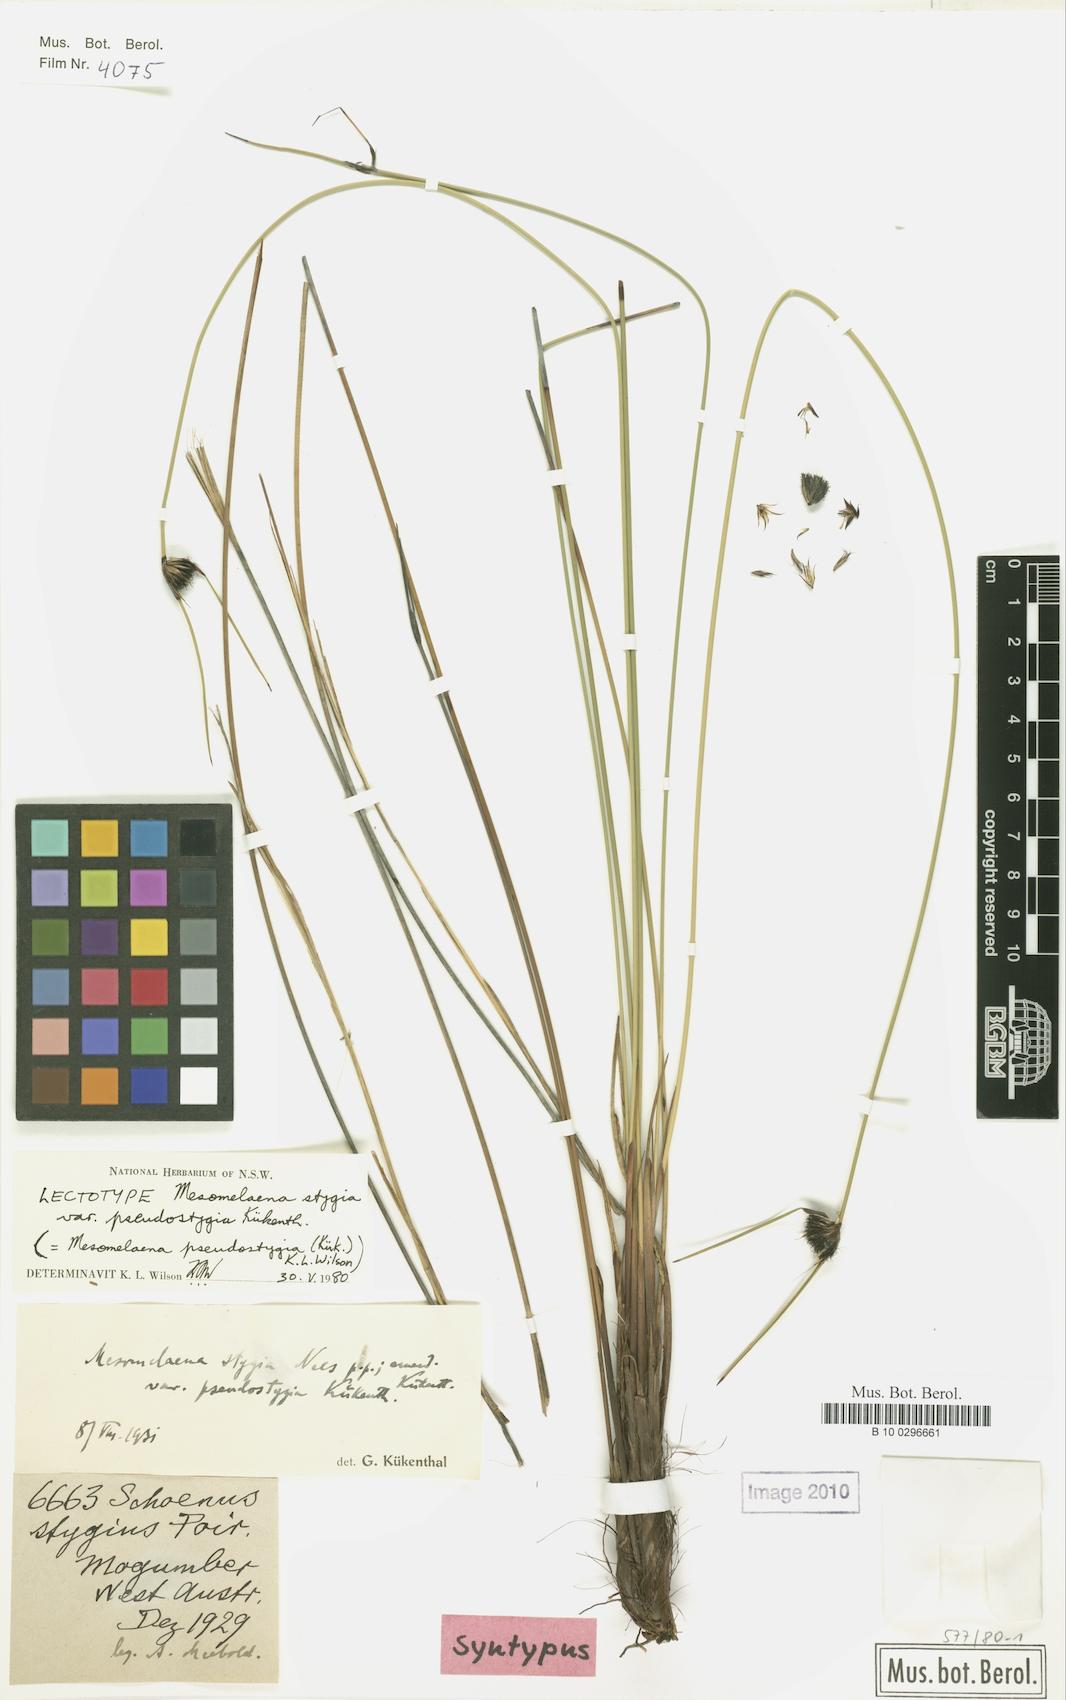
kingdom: Plantae
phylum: Tracheophyta
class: Liliopsida
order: Poales
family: Cyperaceae
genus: Mesomelaena
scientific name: Mesomelaena pseudostygia
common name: Semaphore sedge
